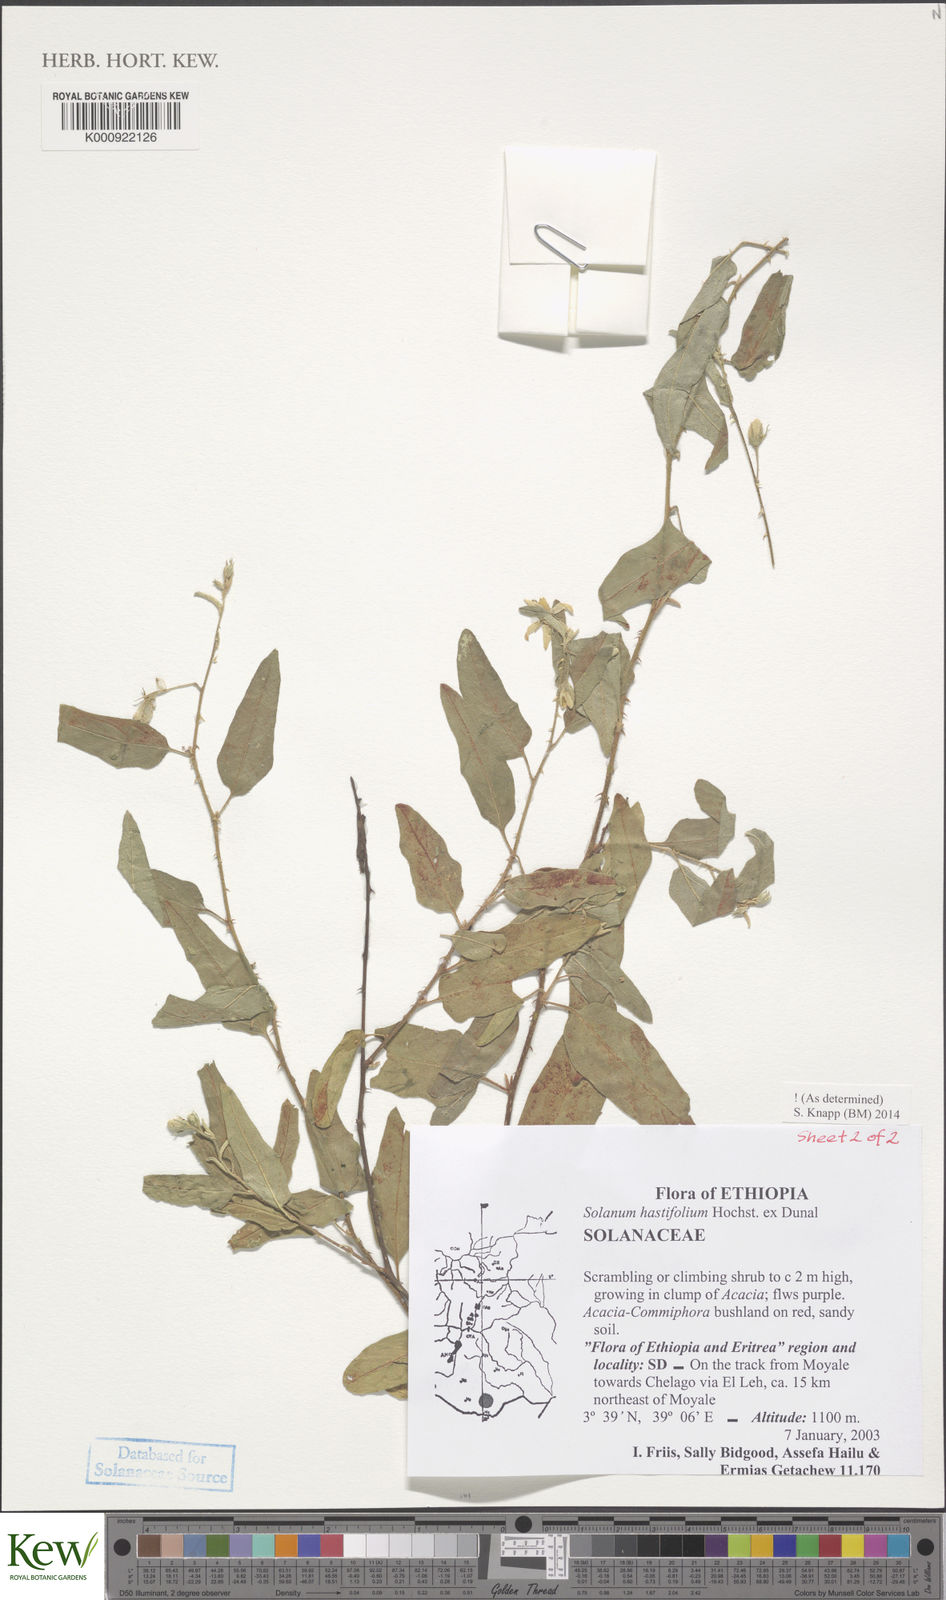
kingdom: Plantae
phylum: Tracheophyta
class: Magnoliopsida
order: Solanales
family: Solanaceae
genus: Solanum
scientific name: Solanum hastifolium
